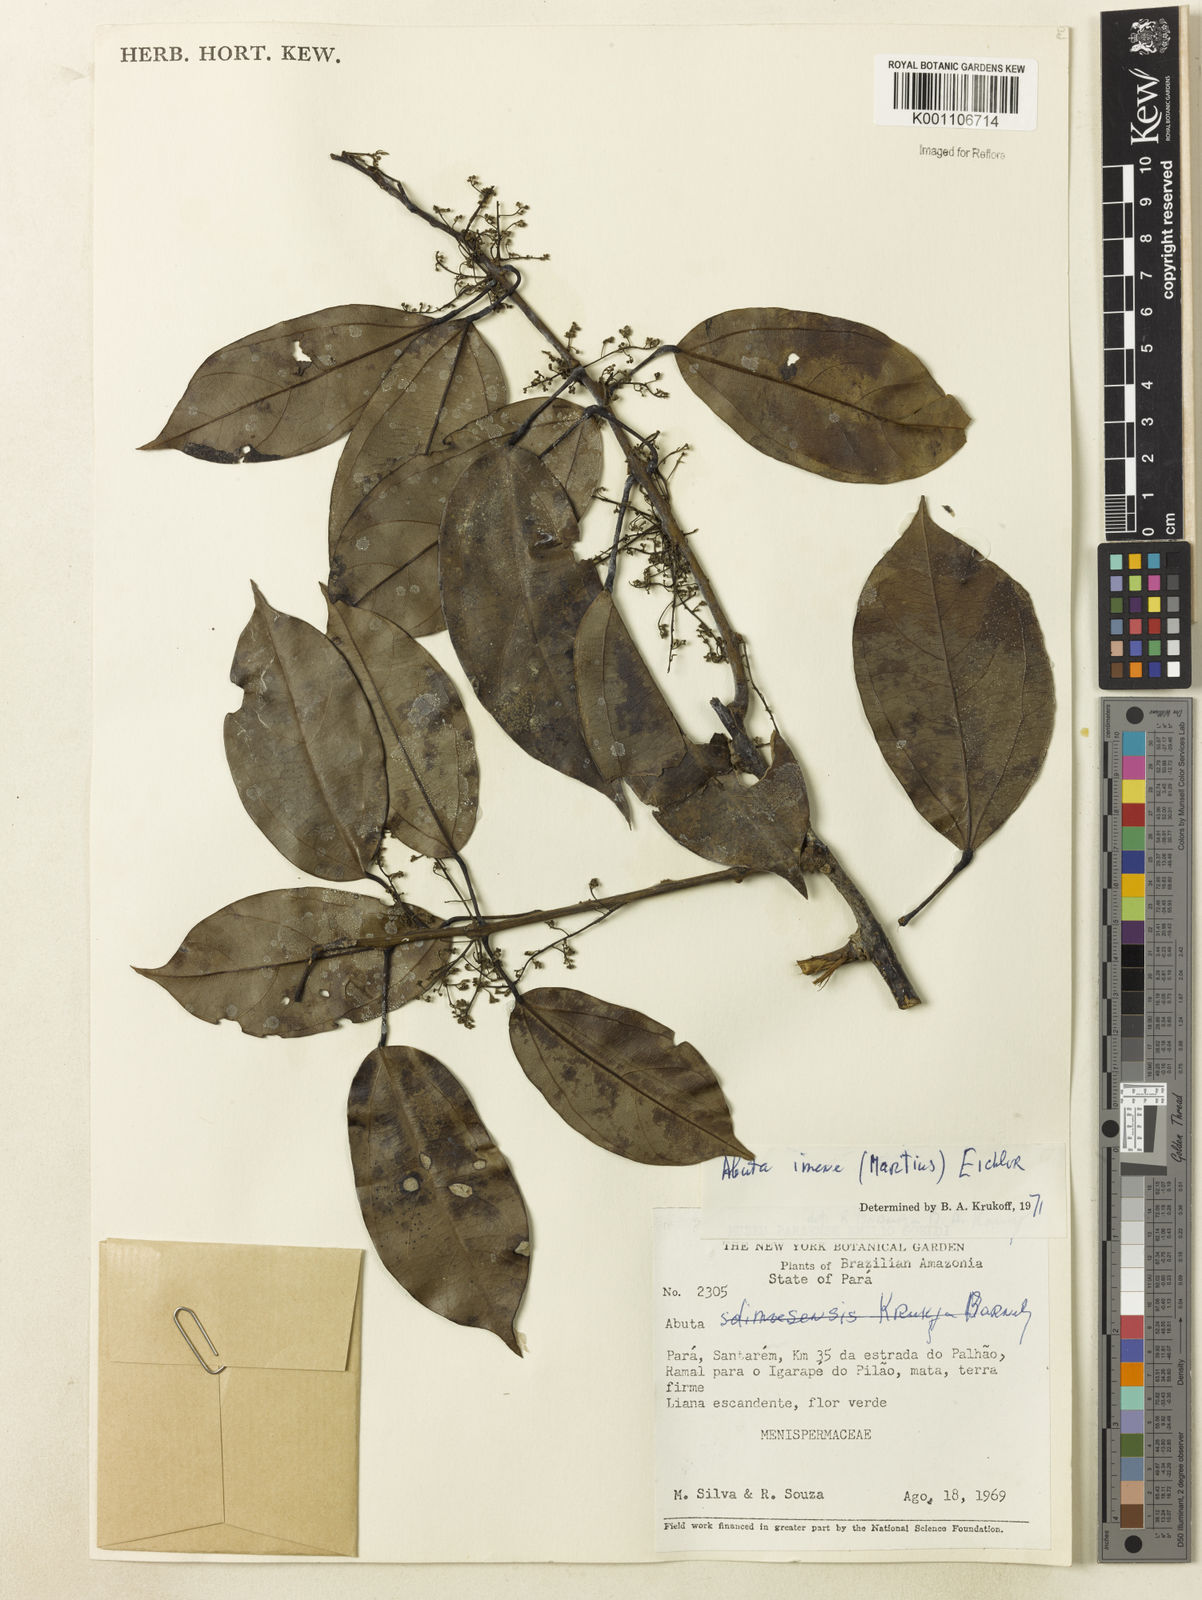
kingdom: Plantae
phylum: Tracheophyta
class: Magnoliopsida
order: Ranunculales
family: Menispermaceae
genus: Abuta
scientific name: Abuta imene
